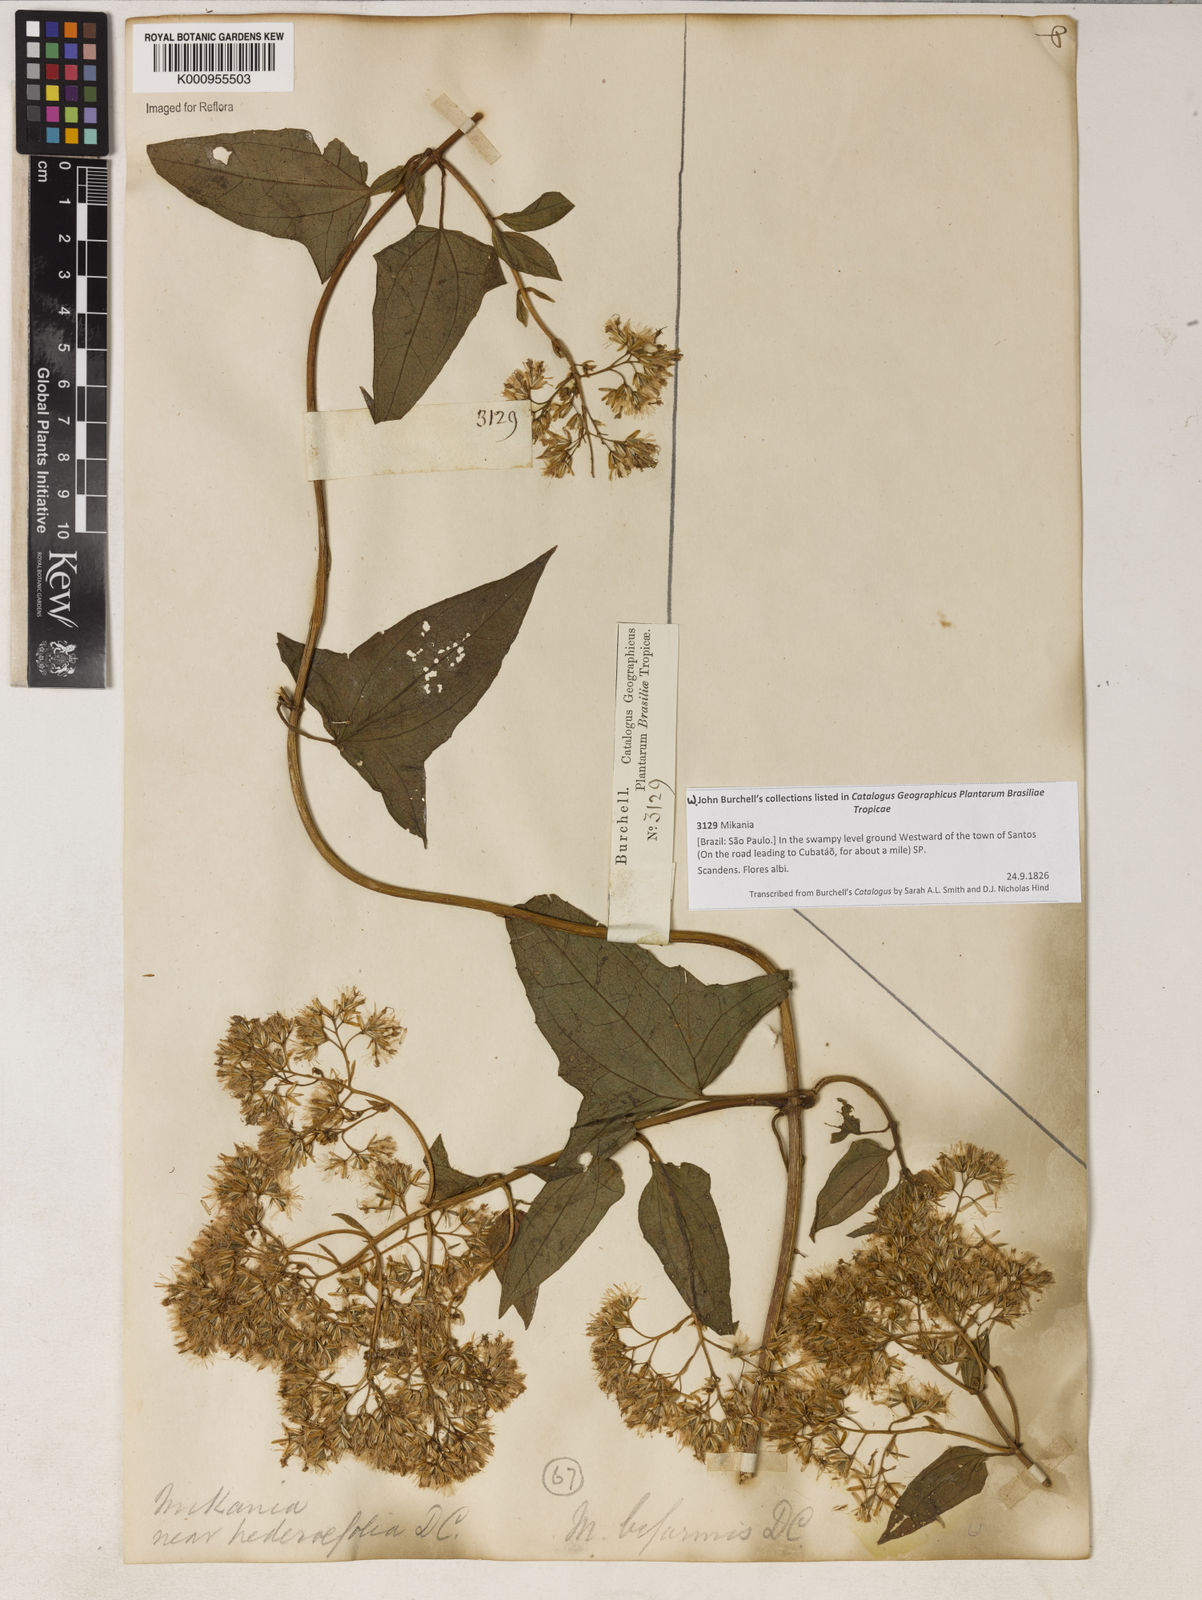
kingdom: Plantae
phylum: Tracheophyta
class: Magnoliopsida
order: Asterales
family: Asteraceae
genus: Mikania
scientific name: Mikania biformis
